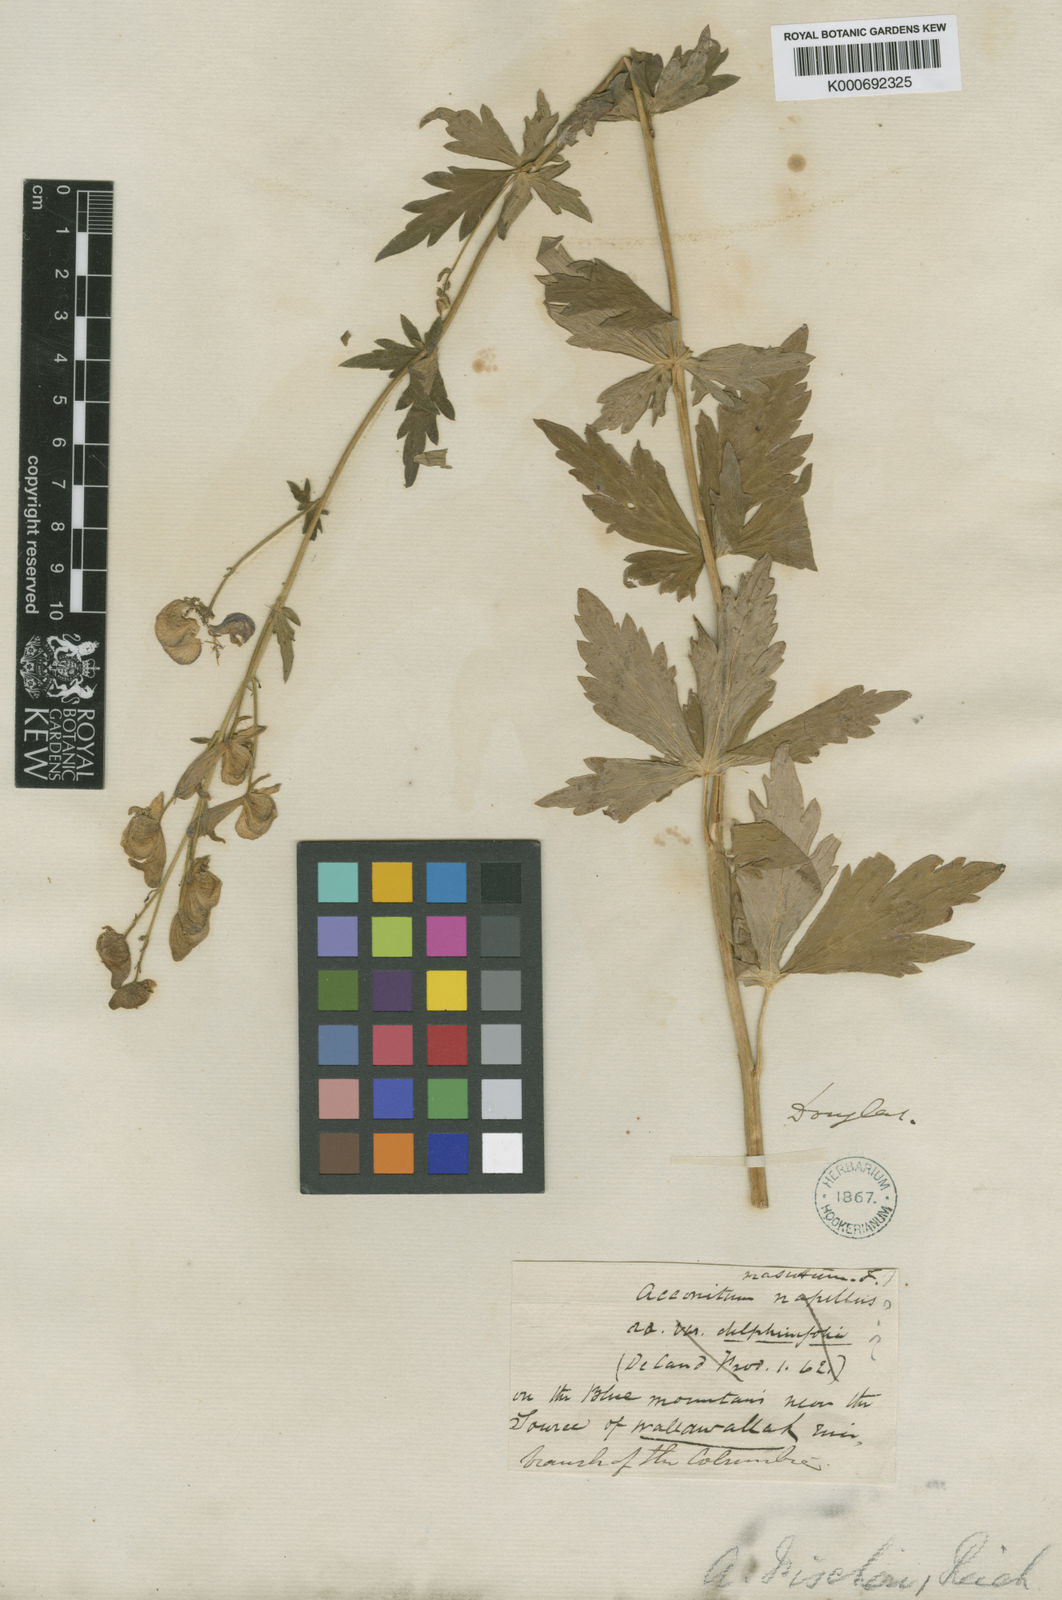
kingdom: Plantae
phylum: Tracheophyta
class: Magnoliopsida
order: Ranunculales
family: Ranunculaceae
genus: Aconitum
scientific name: Aconitum columbianum
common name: Columbia aconite
